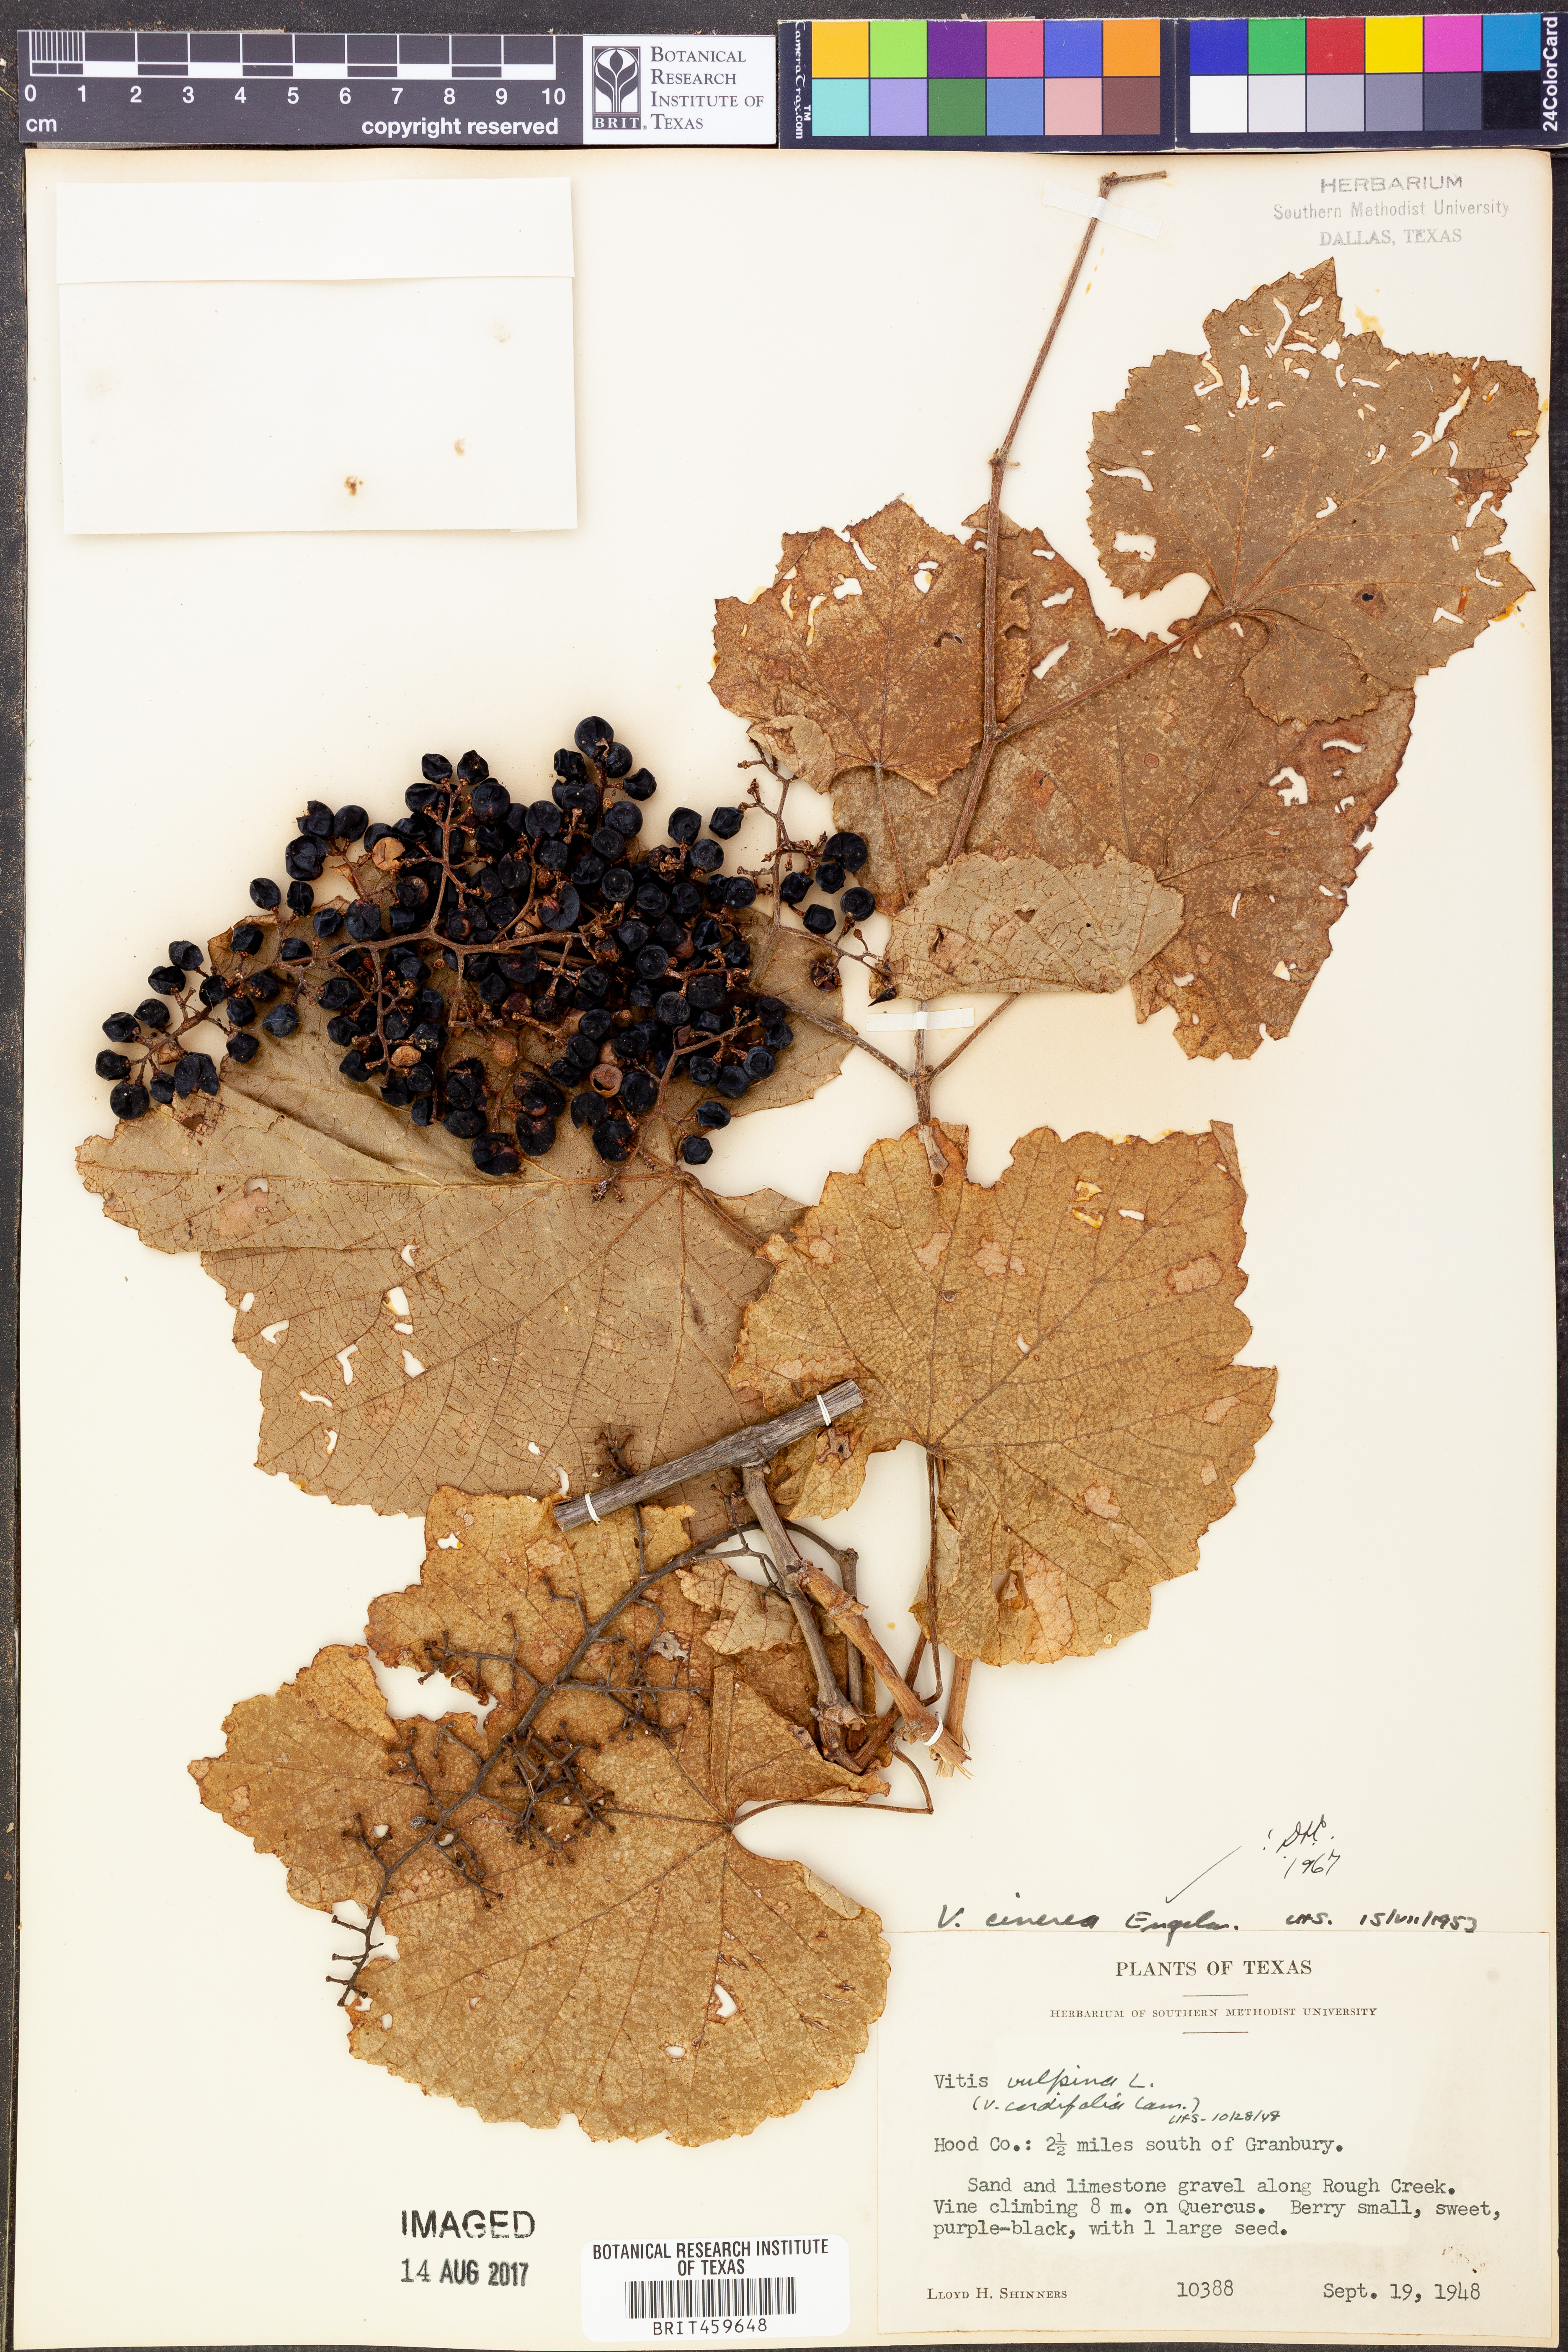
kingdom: Plantae
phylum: Tracheophyta
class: Magnoliopsida
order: Vitales
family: Vitaceae
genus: Vitis
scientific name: Vitis cinerea
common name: Ashy grape
